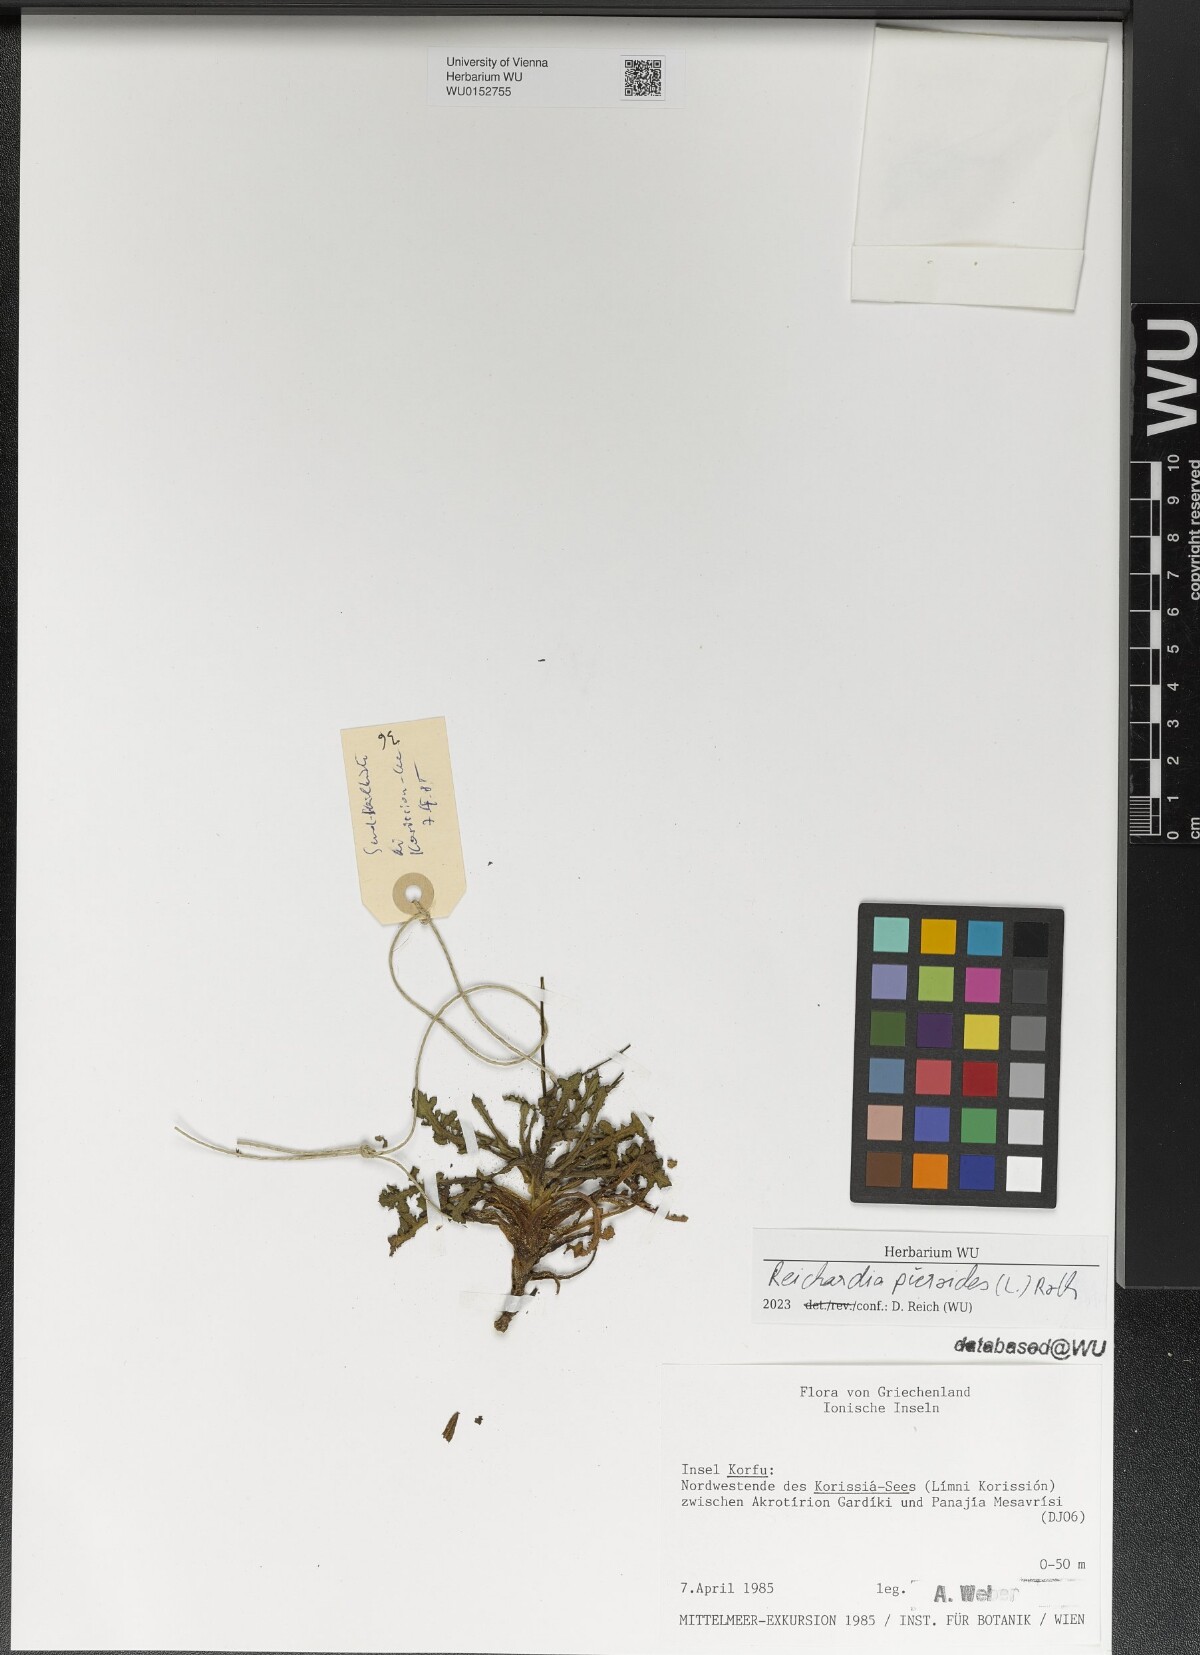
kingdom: Plantae
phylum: Tracheophyta
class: Magnoliopsida
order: Asterales
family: Asteraceae
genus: Reichardia
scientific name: Reichardia picroides
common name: Common brighteyes
